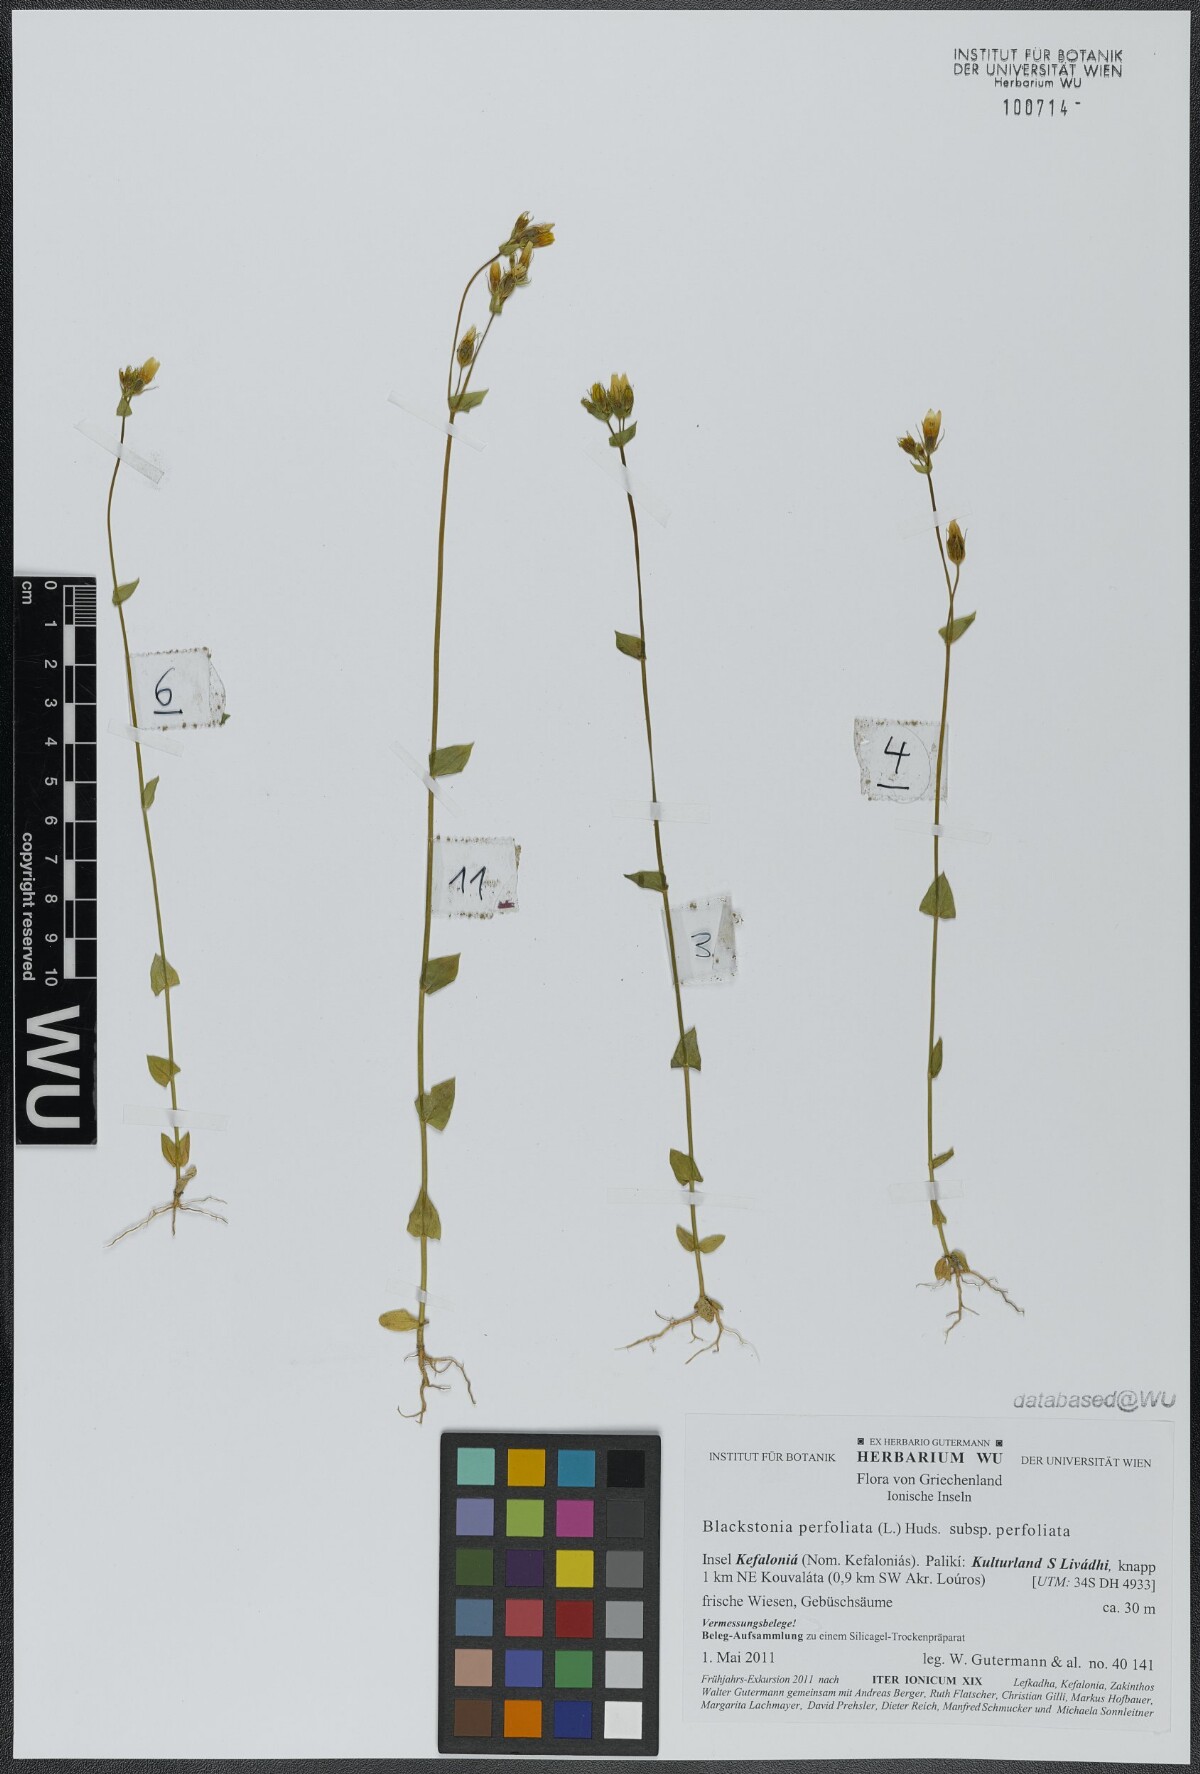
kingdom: Plantae
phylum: Tracheophyta
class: Magnoliopsida
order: Gentianales
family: Gentianaceae
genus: Blackstonia
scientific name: Blackstonia perfoliata
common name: Yellow-wort
